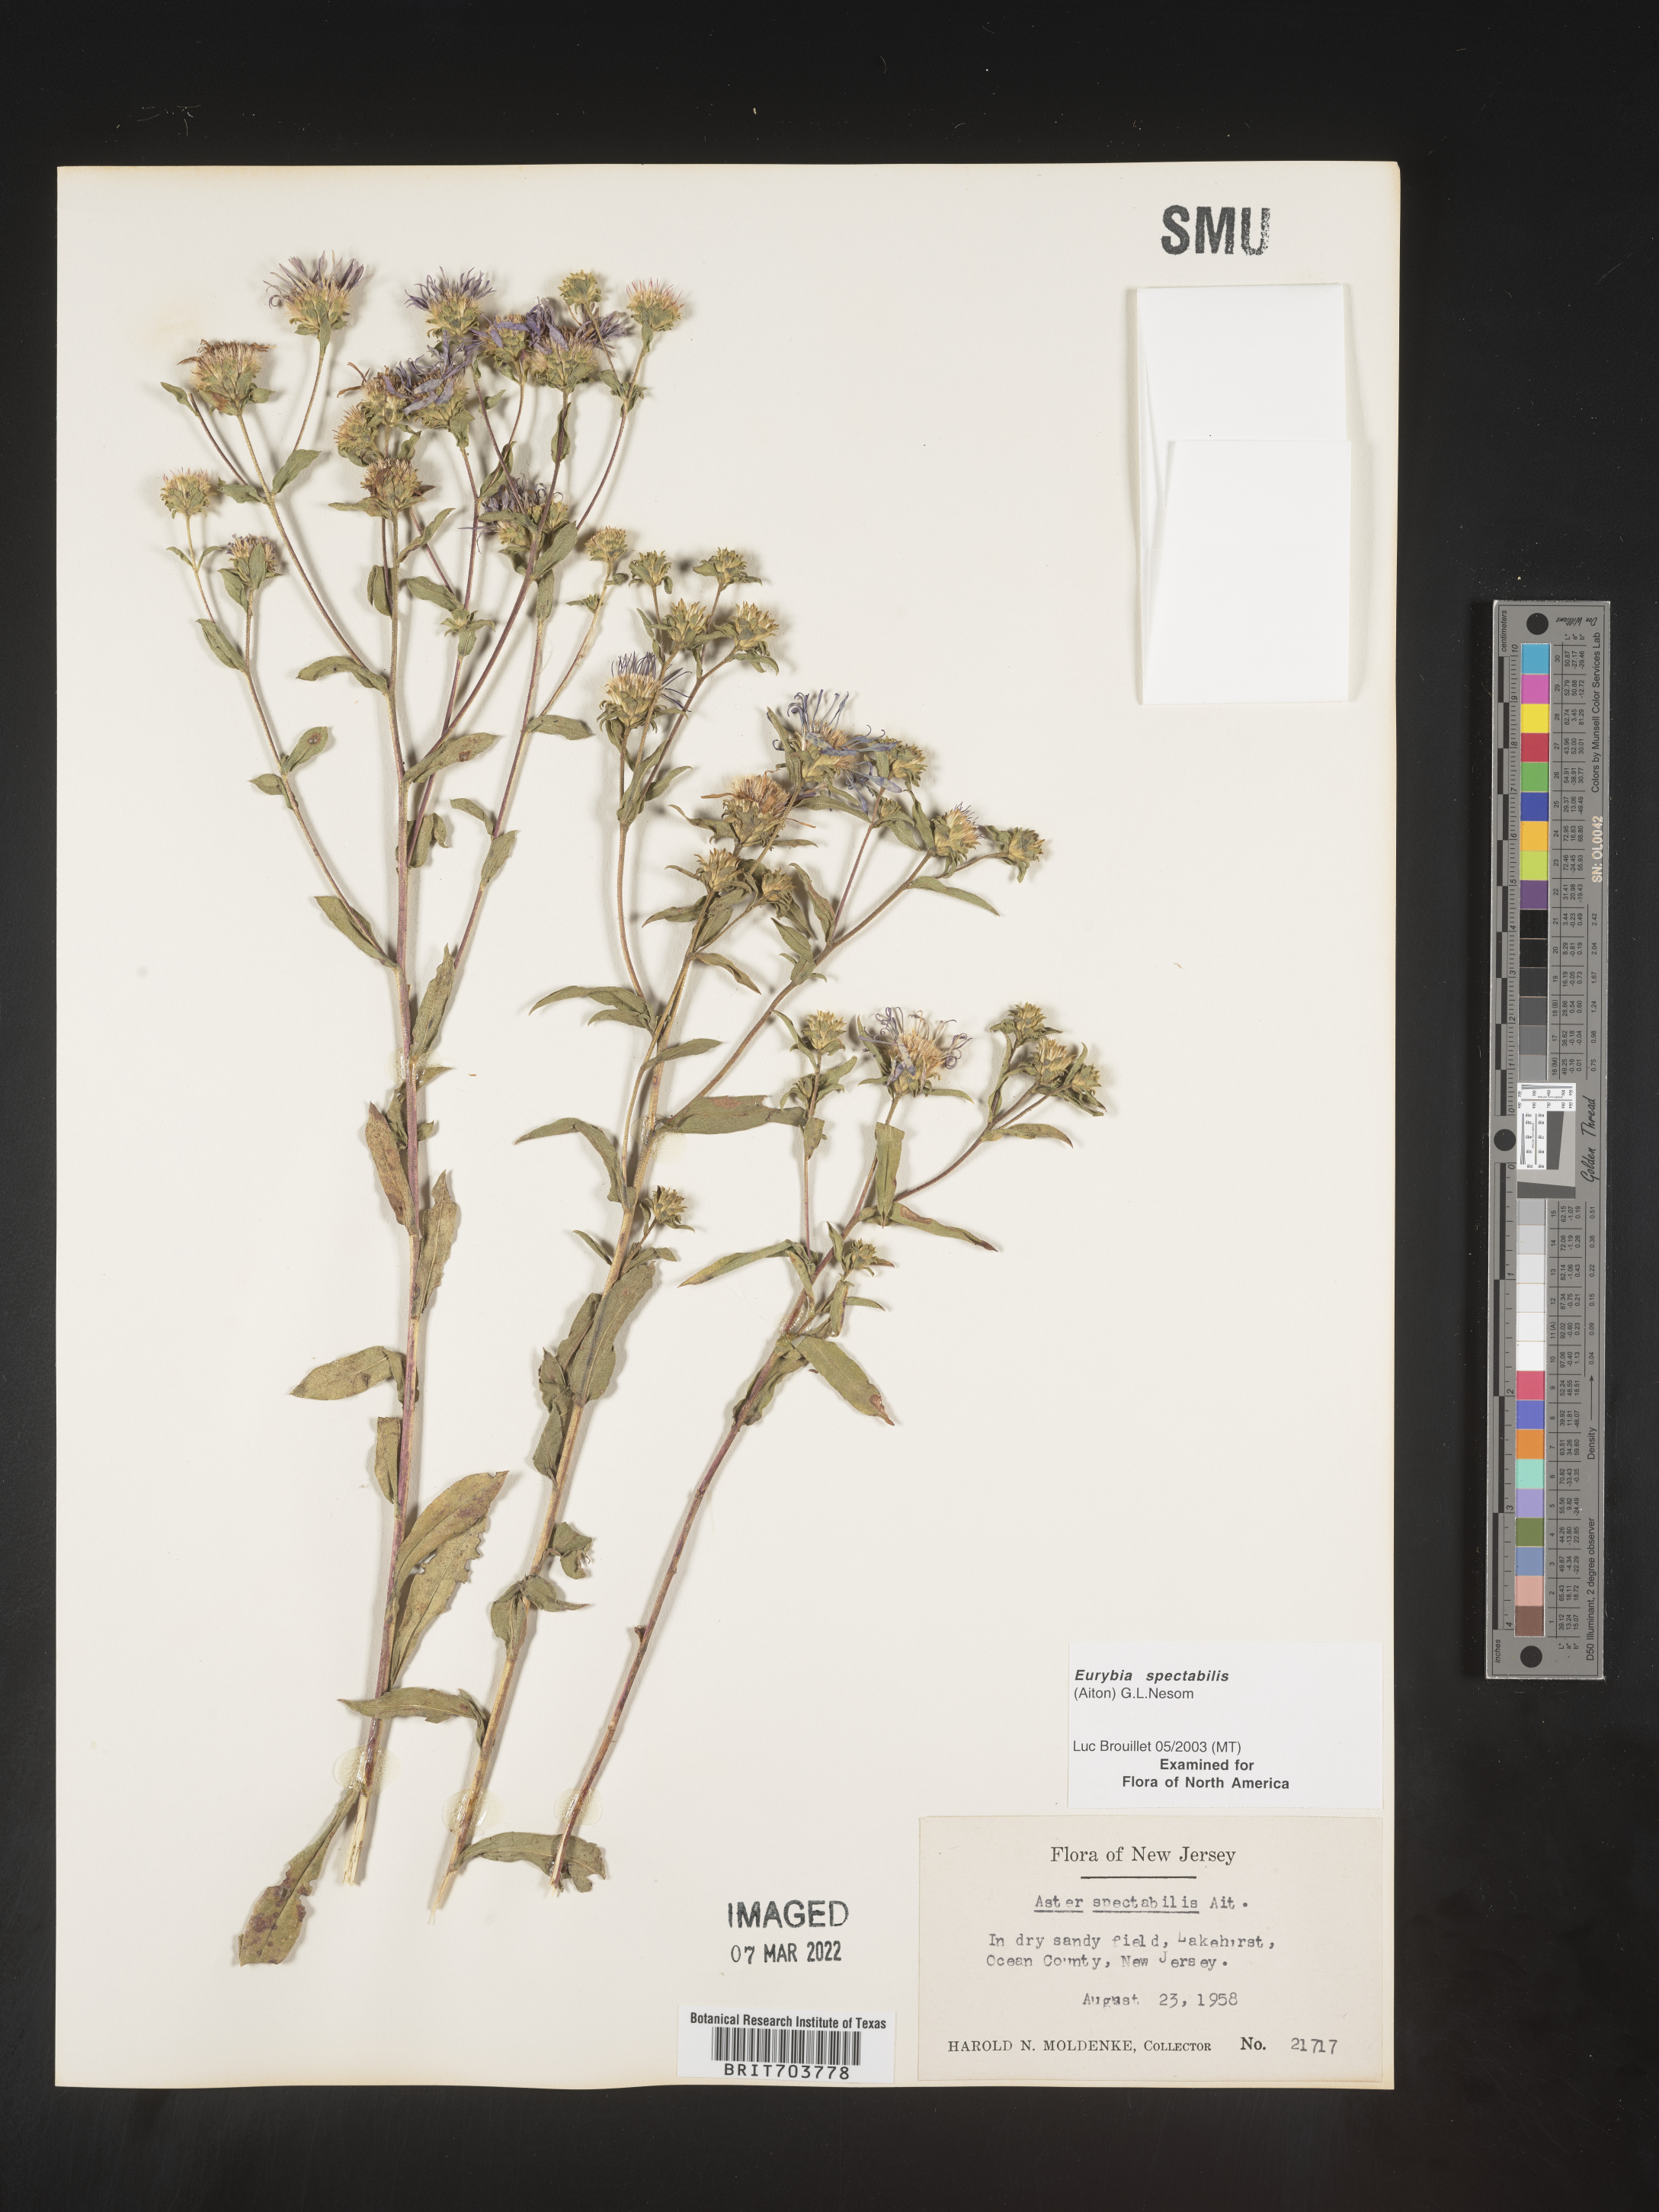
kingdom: Plantae
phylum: Tracheophyta
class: Magnoliopsida
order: Asterales
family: Asteraceae
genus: Eurybia
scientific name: Eurybia spectabilis
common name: Low showy aster
